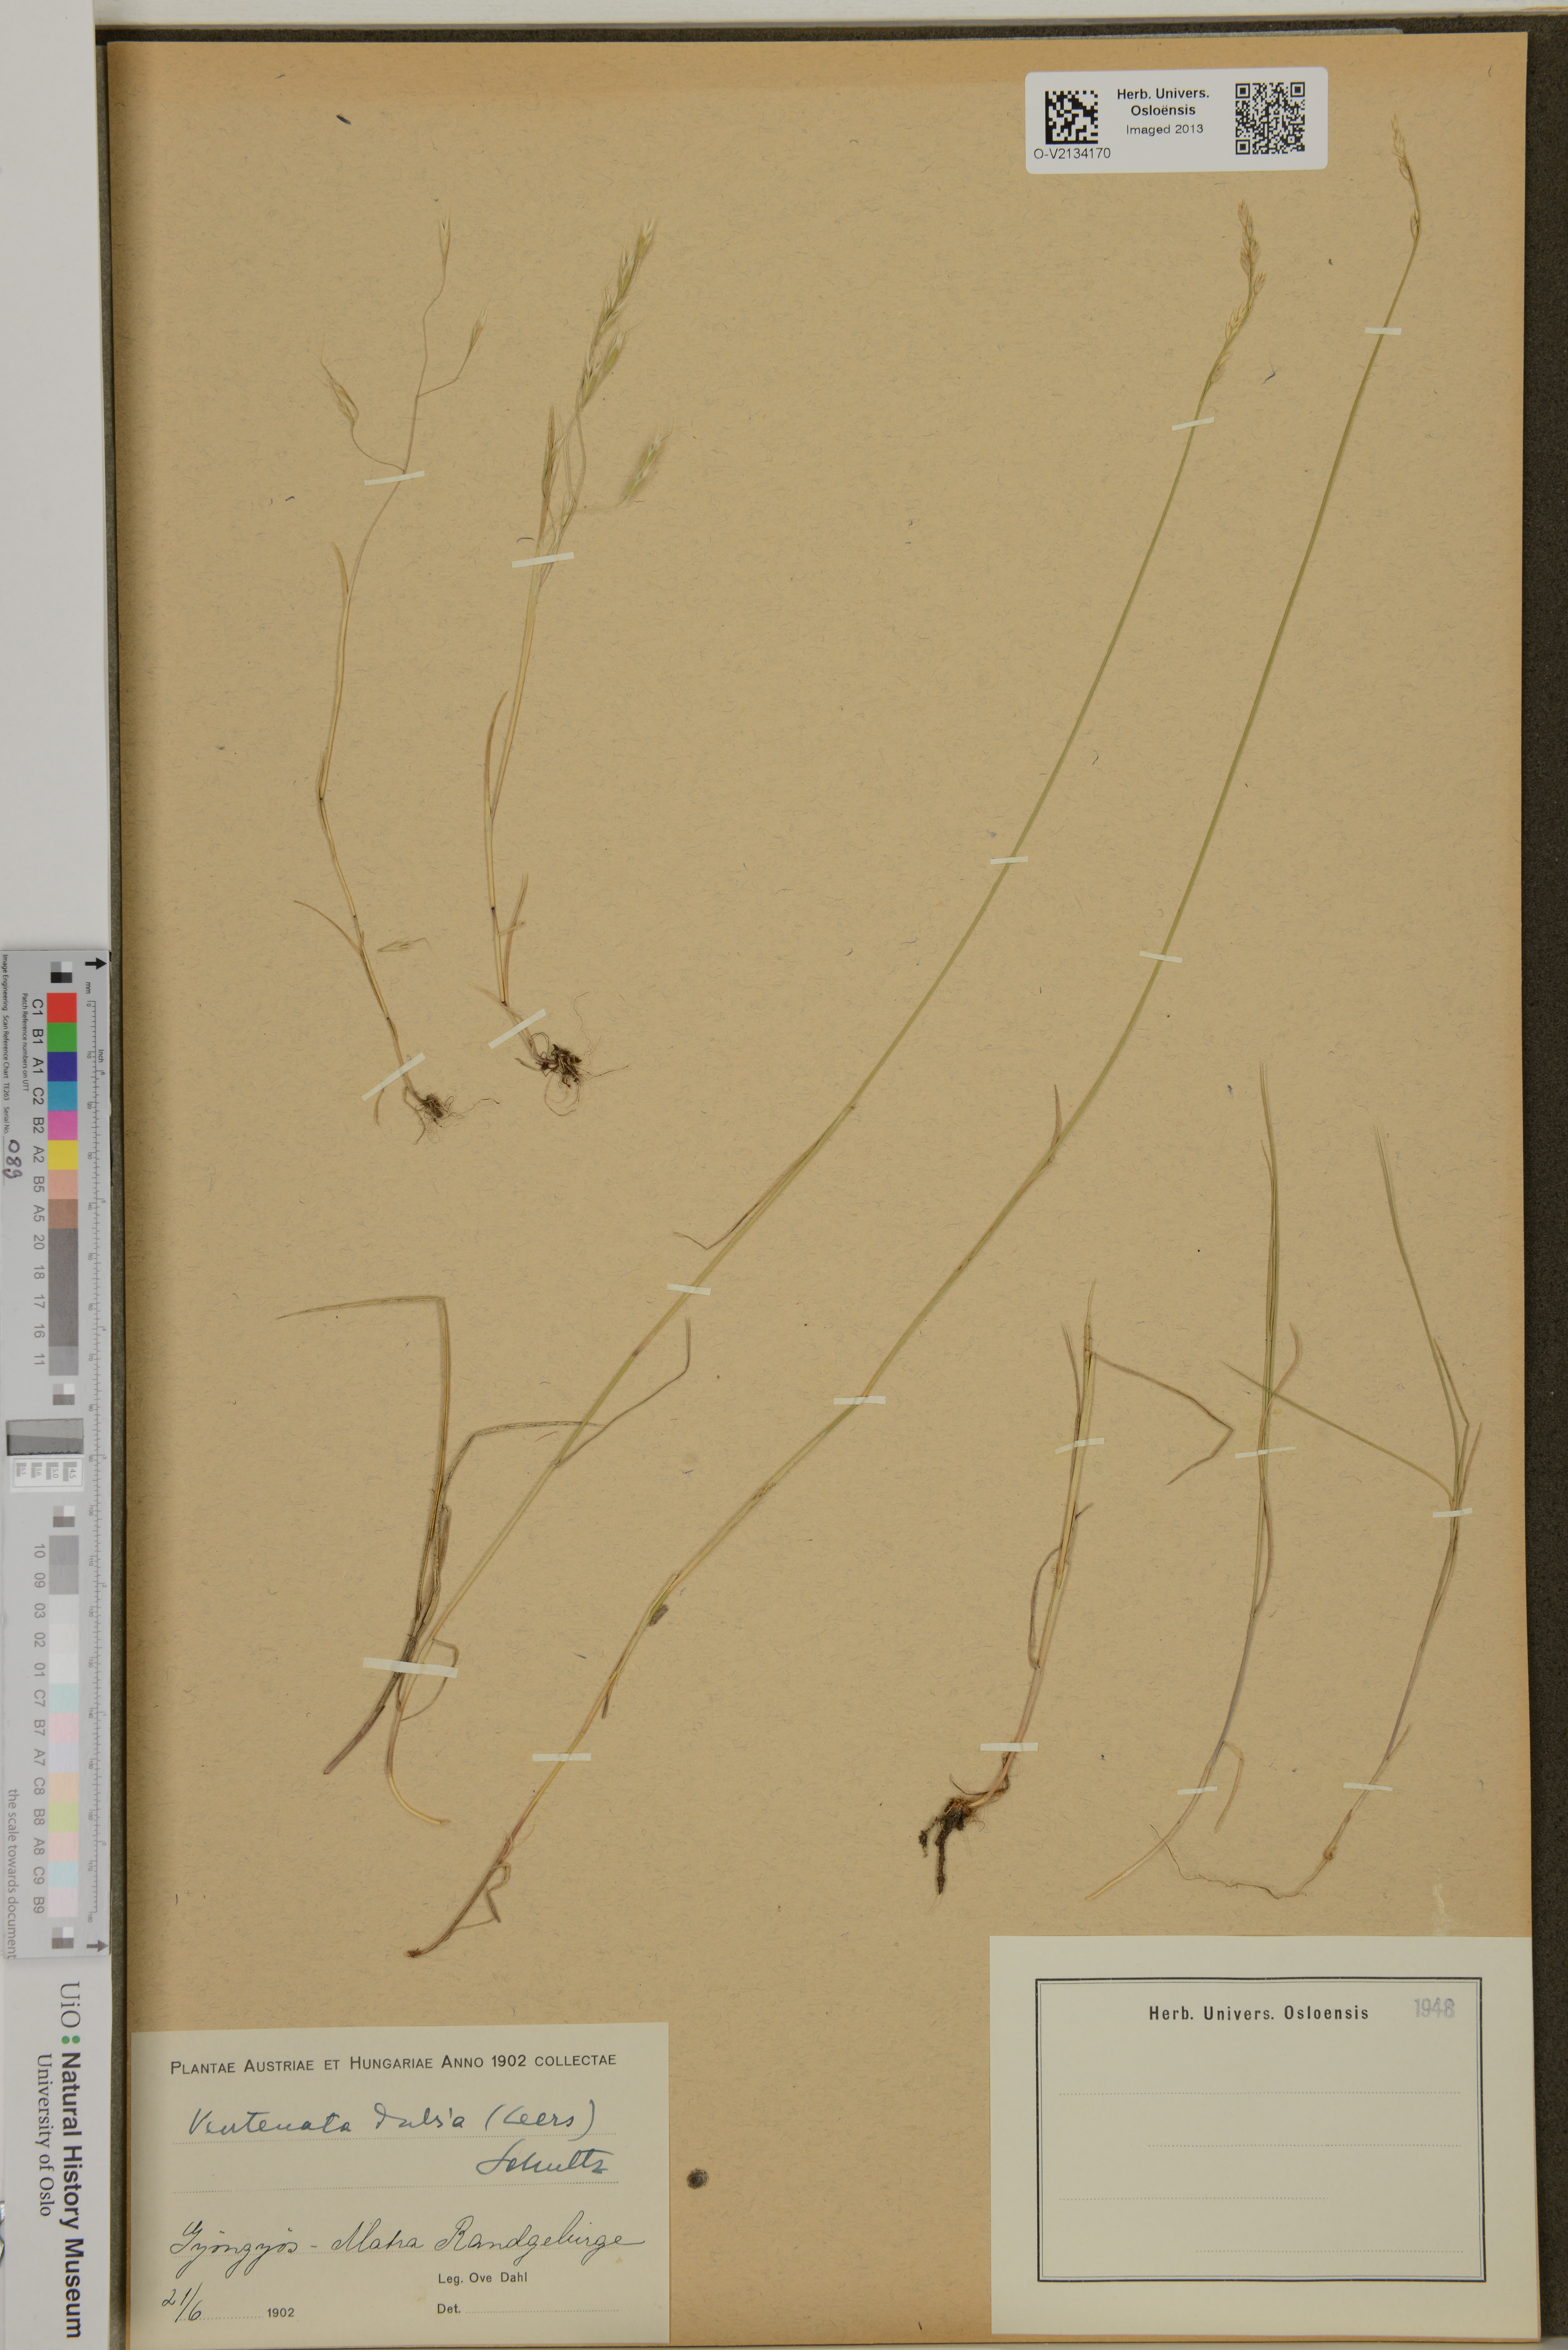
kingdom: Plantae
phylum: Tracheophyta
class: Liliopsida
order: Poales
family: Poaceae
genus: Ventenata
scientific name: Ventenata dubia
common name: North africa grass
